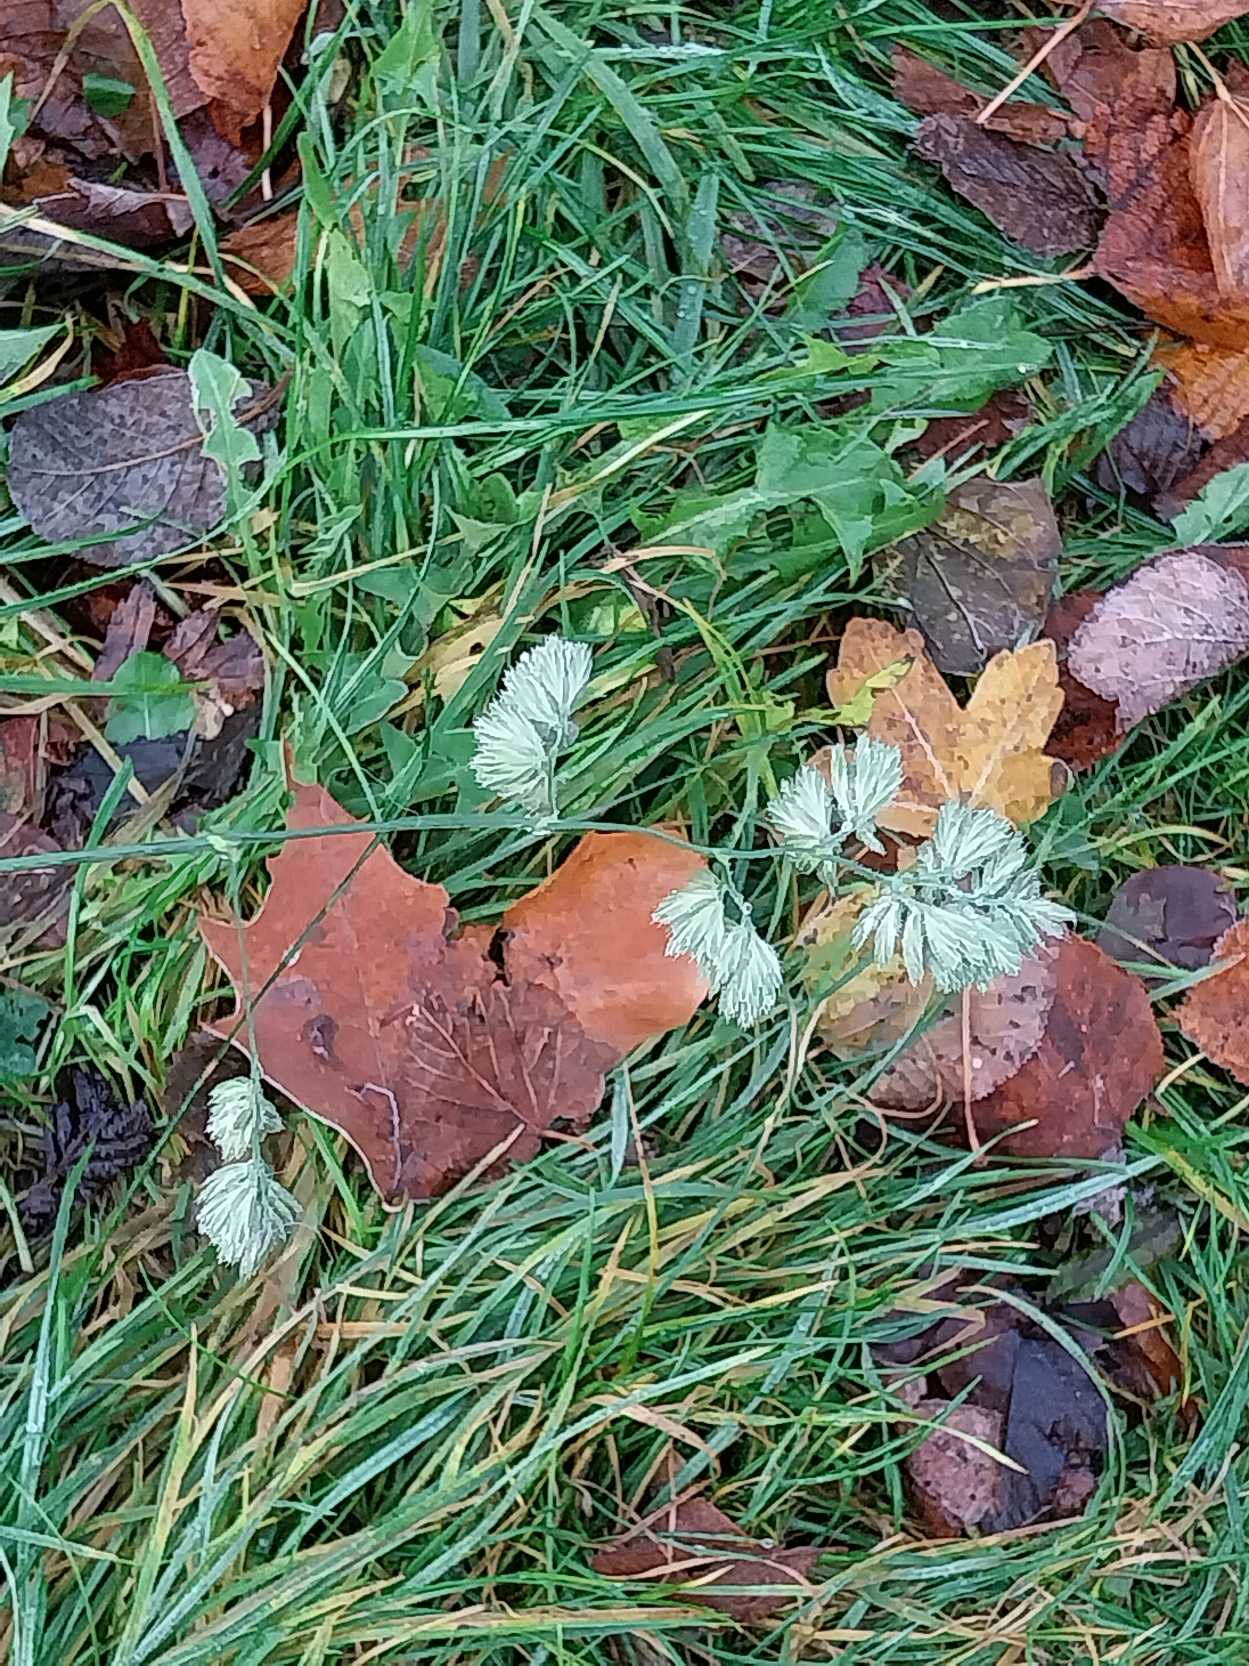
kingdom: Plantae
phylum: Tracheophyta
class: Liliopsida
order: Poales
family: Poaceae
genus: Dactylis
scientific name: Dactylis glomerata
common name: Almindelig hundegræs
